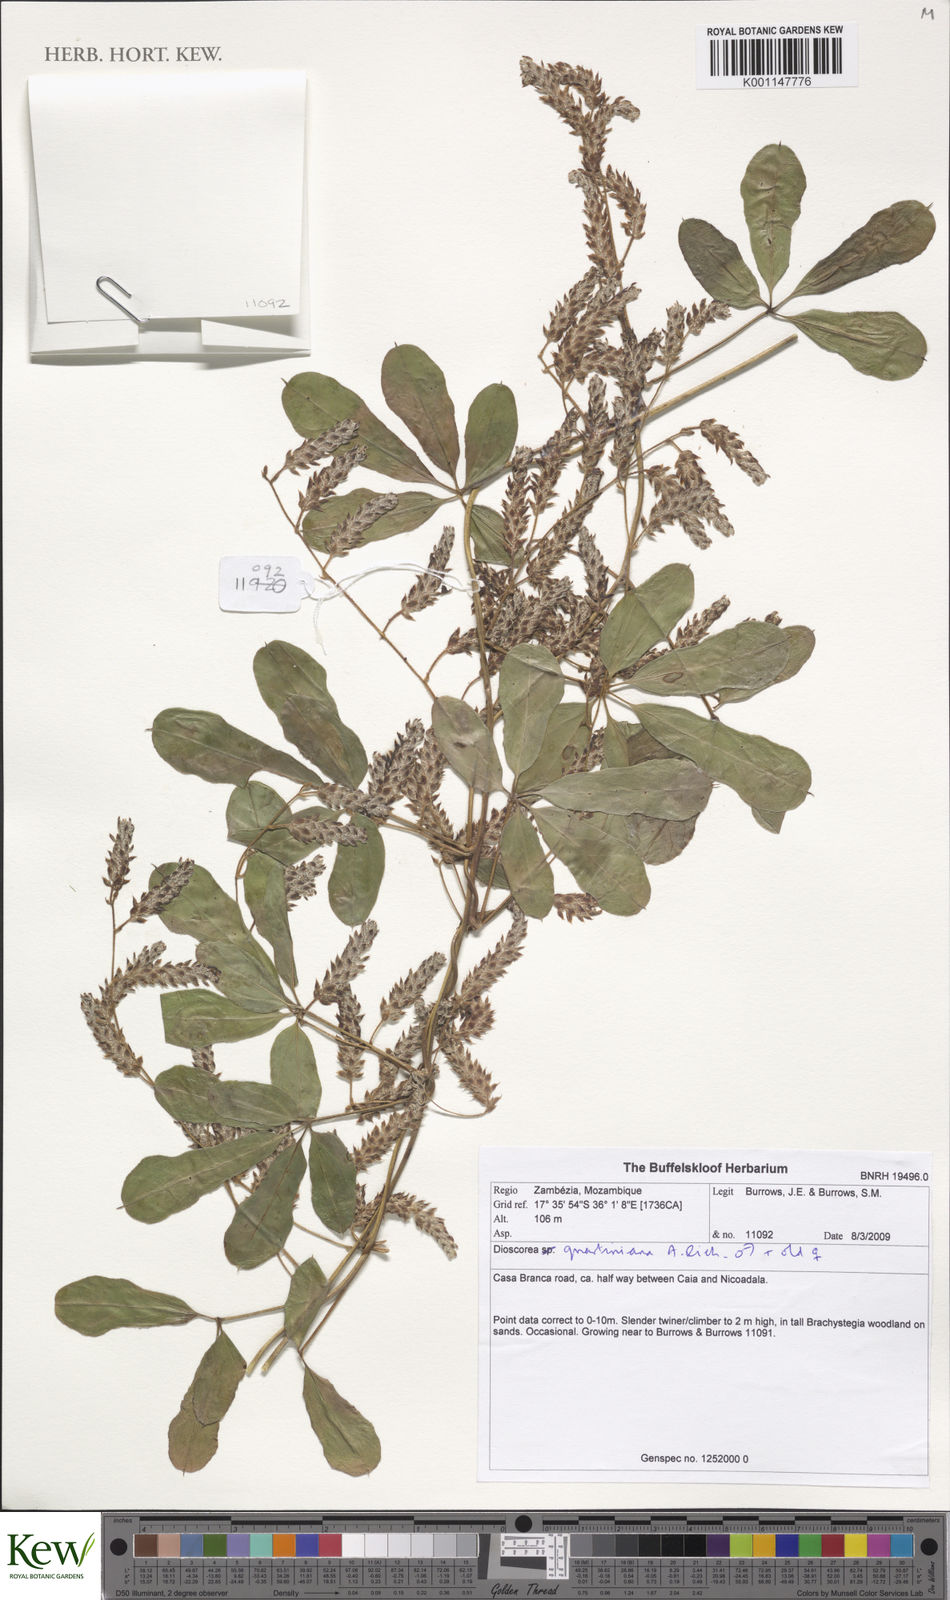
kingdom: Plantae
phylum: Tracheophyta
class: Liliopsida
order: Dioscoreales
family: Dioscoreaceae
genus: Dioscorea
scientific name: Dioscorea quartiniana
